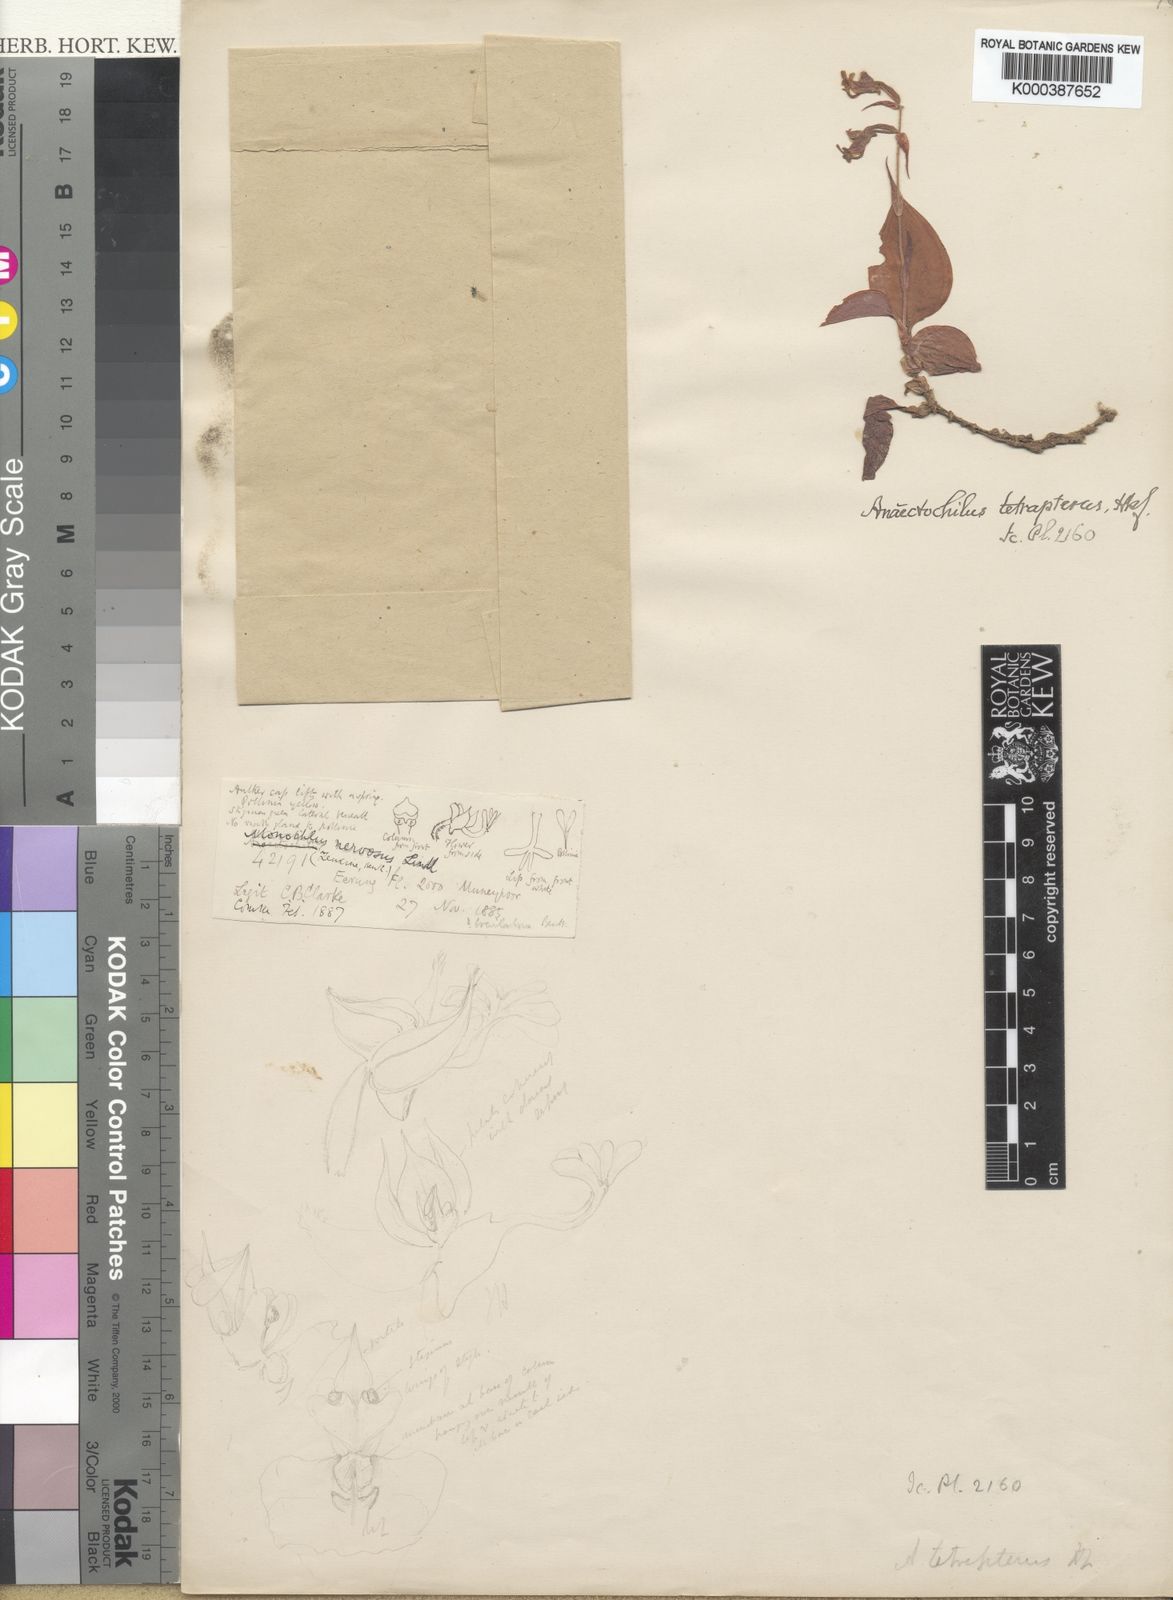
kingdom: Plantae
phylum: Tracheophyta
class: Liliopsida
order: Asparagales
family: Orchidaceae
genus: Odontochilus
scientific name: Odontochilus tetrapterus
